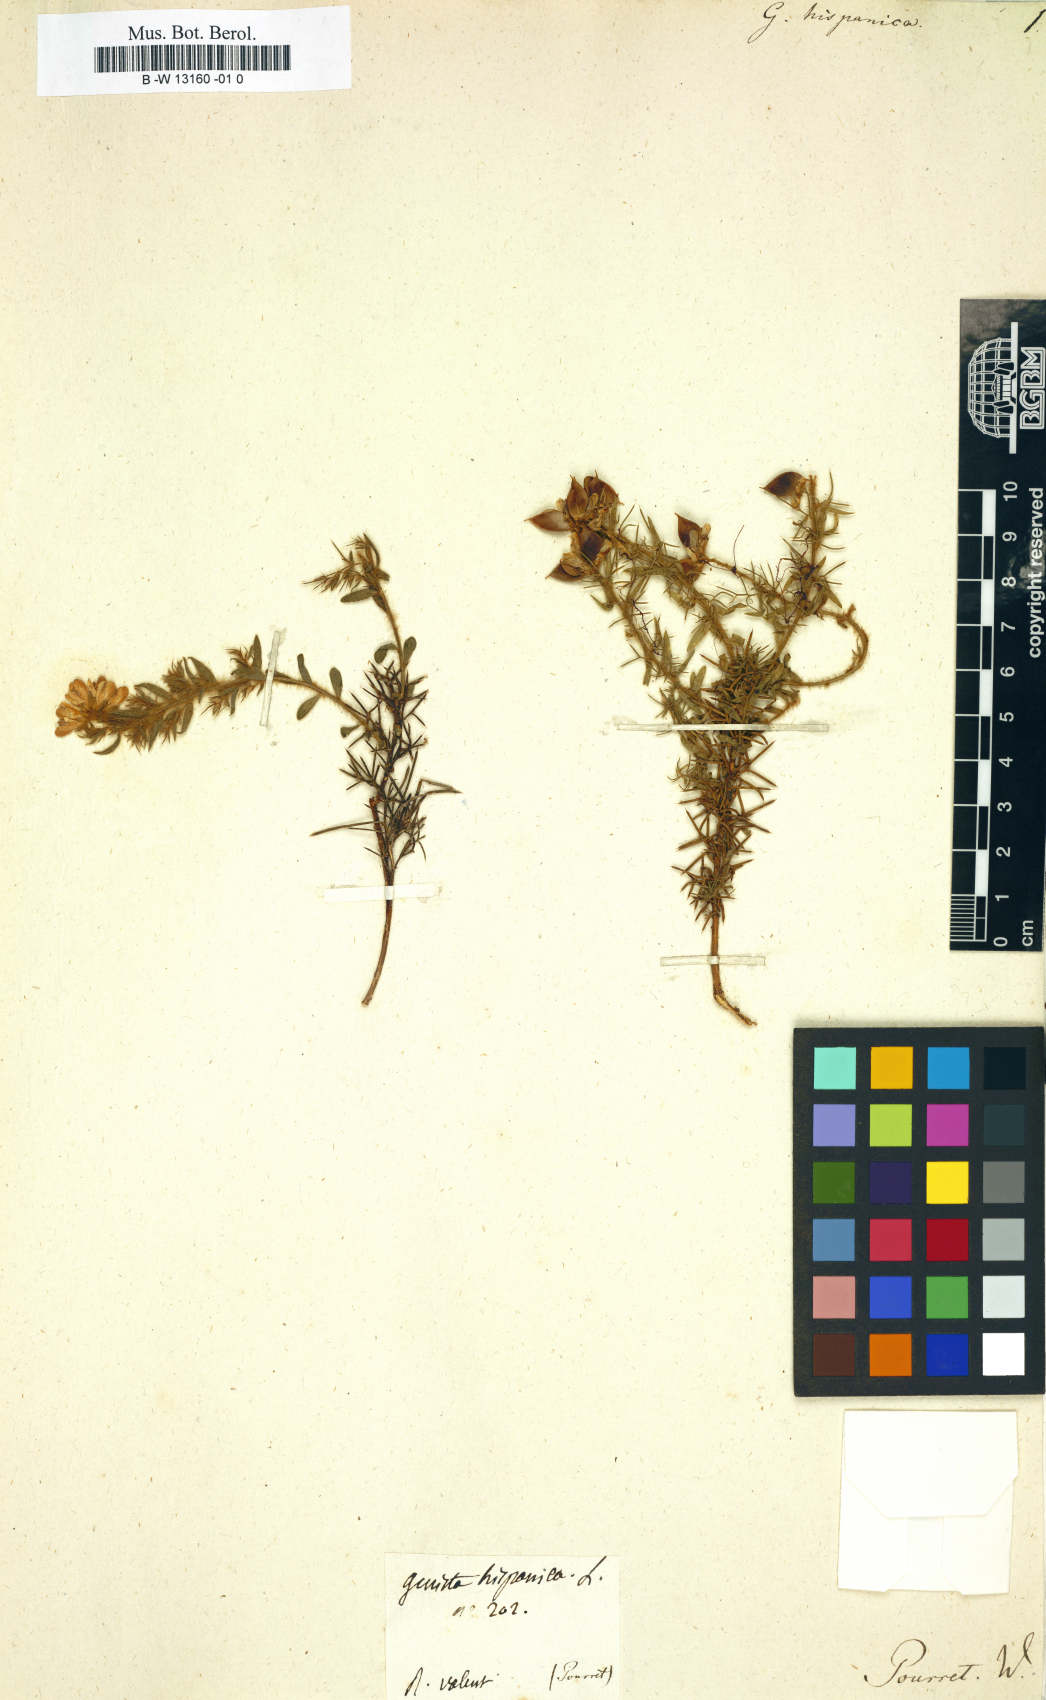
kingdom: Plantae
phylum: Tracheophyta
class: Magnoliopsida
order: Fabales
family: Fabaceae
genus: Genista
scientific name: Genista hispanica
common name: Spanish gorse
